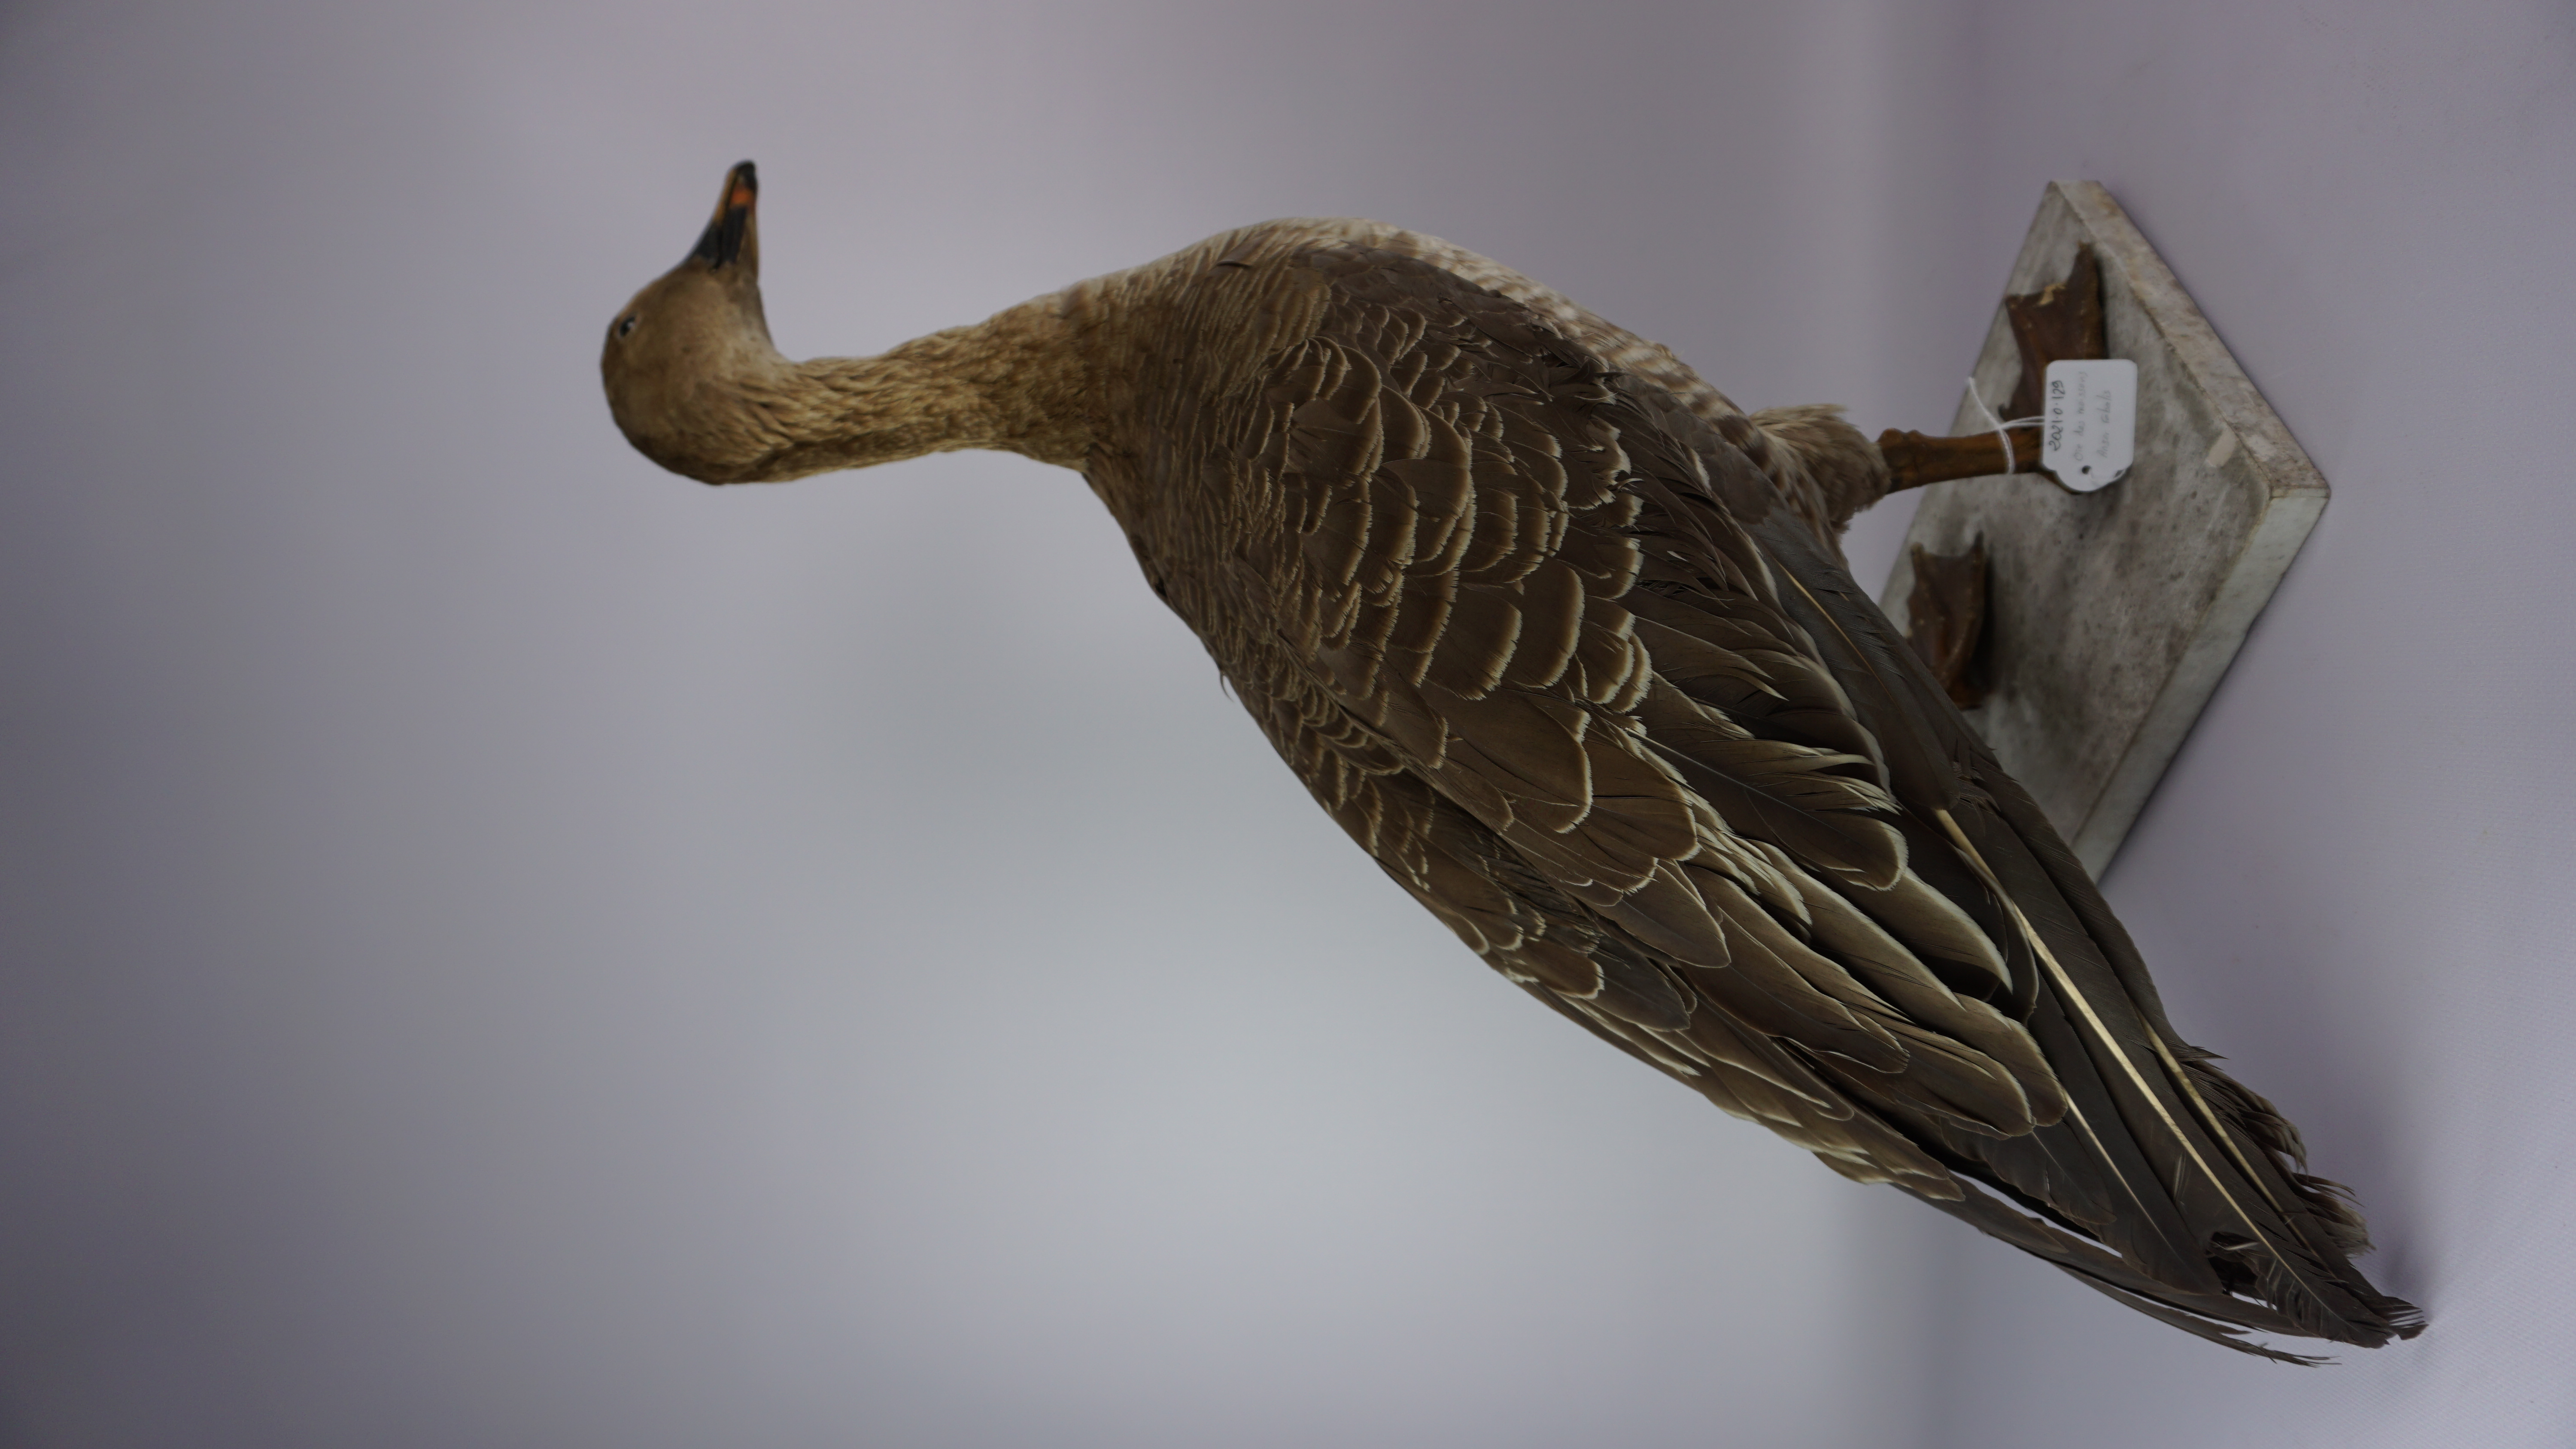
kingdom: Animalia
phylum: Chordata
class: Aves
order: Anseriformes
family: Anatidae
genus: Anser
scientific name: Anser fabalis
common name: Bean goose
